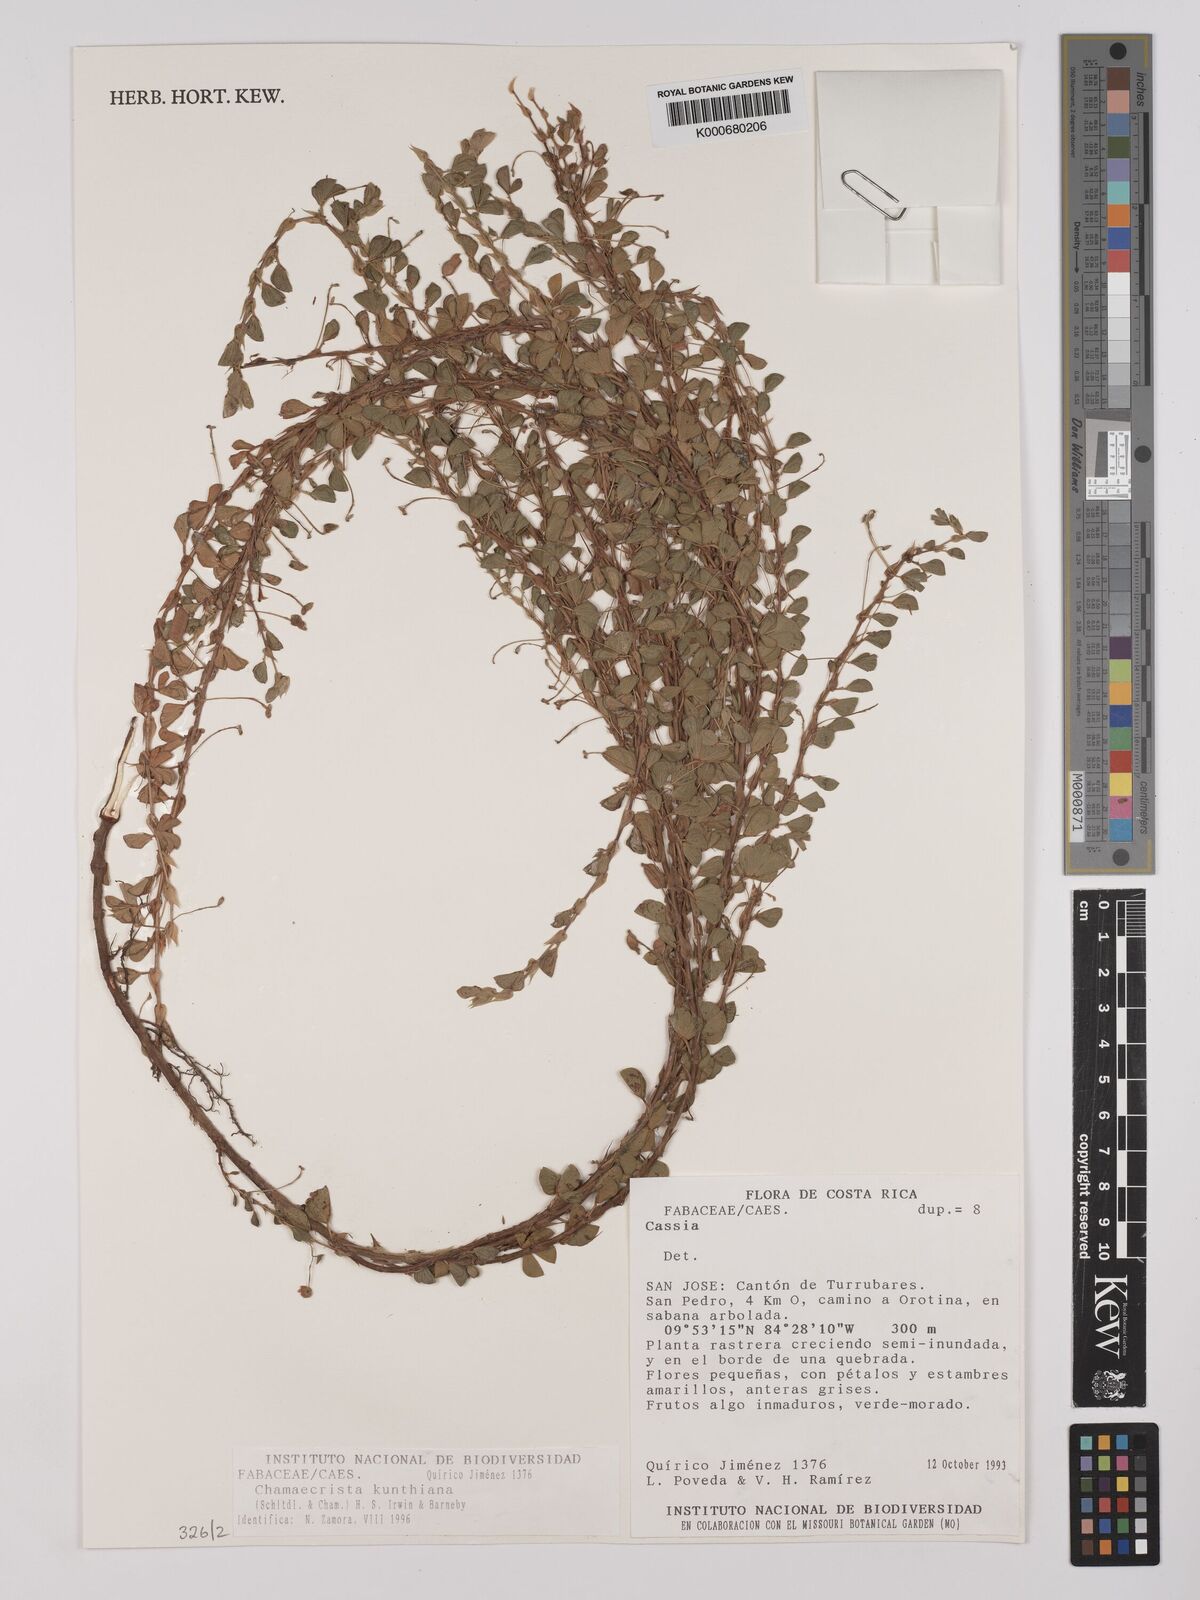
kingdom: Plantae
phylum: Tracheophyta
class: Magnoliopsida
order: Fabales
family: Fabaceae
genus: Chamaecrista
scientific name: Chamaecrista kunthiana
